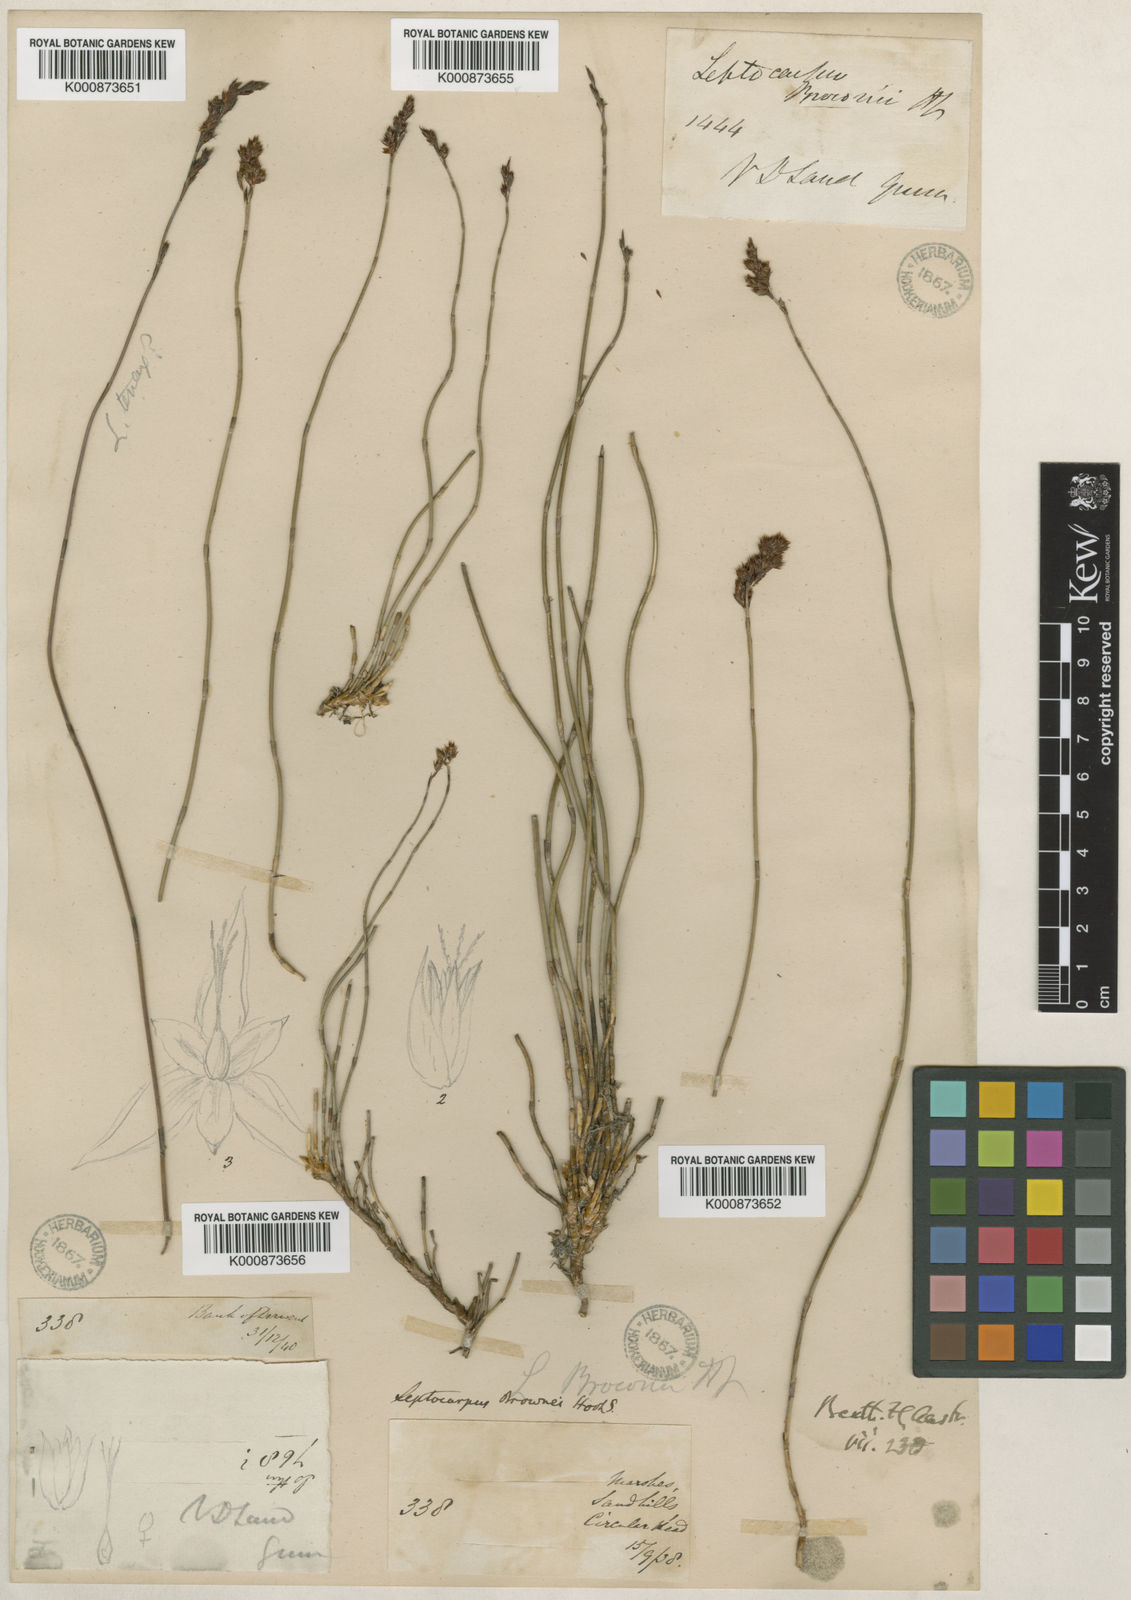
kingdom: Plantae
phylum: Tracheophyta
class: Liliopsida
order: Poales
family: Restionaceae
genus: Apodasmia
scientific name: Apodasmia brownii
